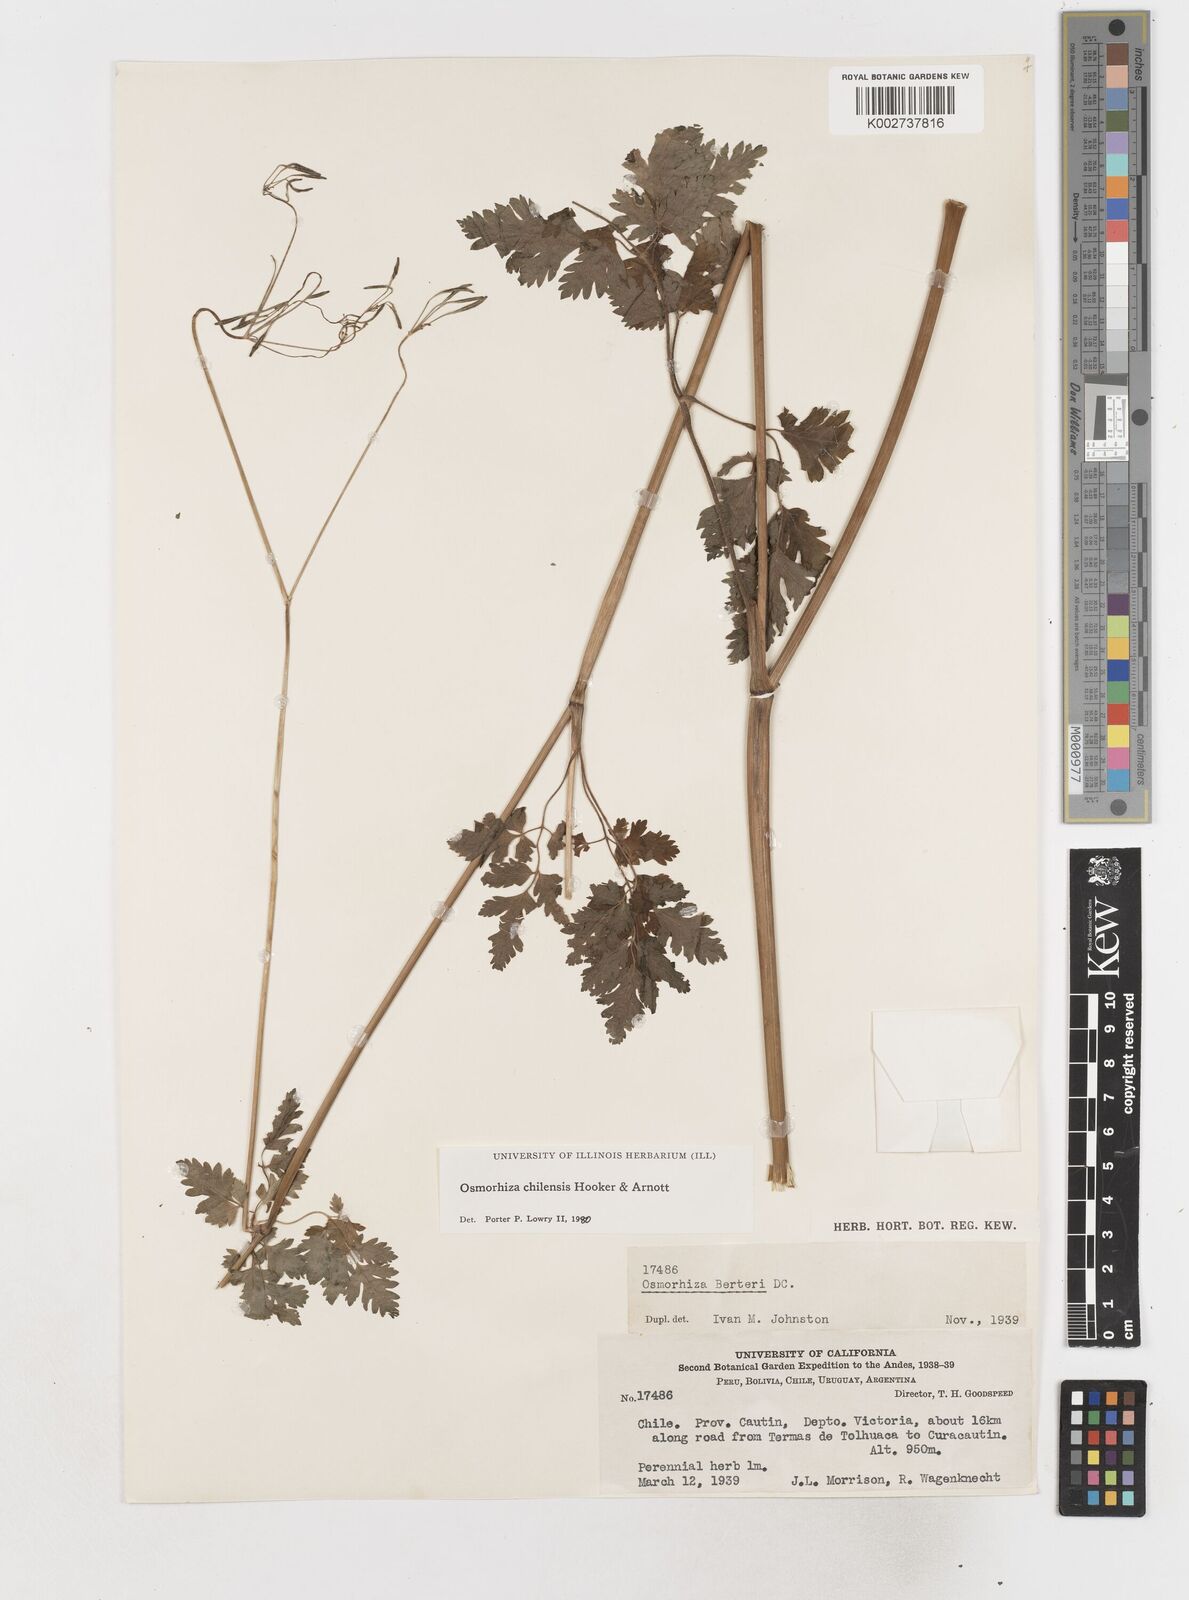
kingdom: Plantae
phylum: Tracheophyta
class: Magnoliopsida
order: Apiales
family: Apiaceae
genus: Osmorhiza
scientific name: Osmorhiza berteroi
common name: Mountain sweet cicely
